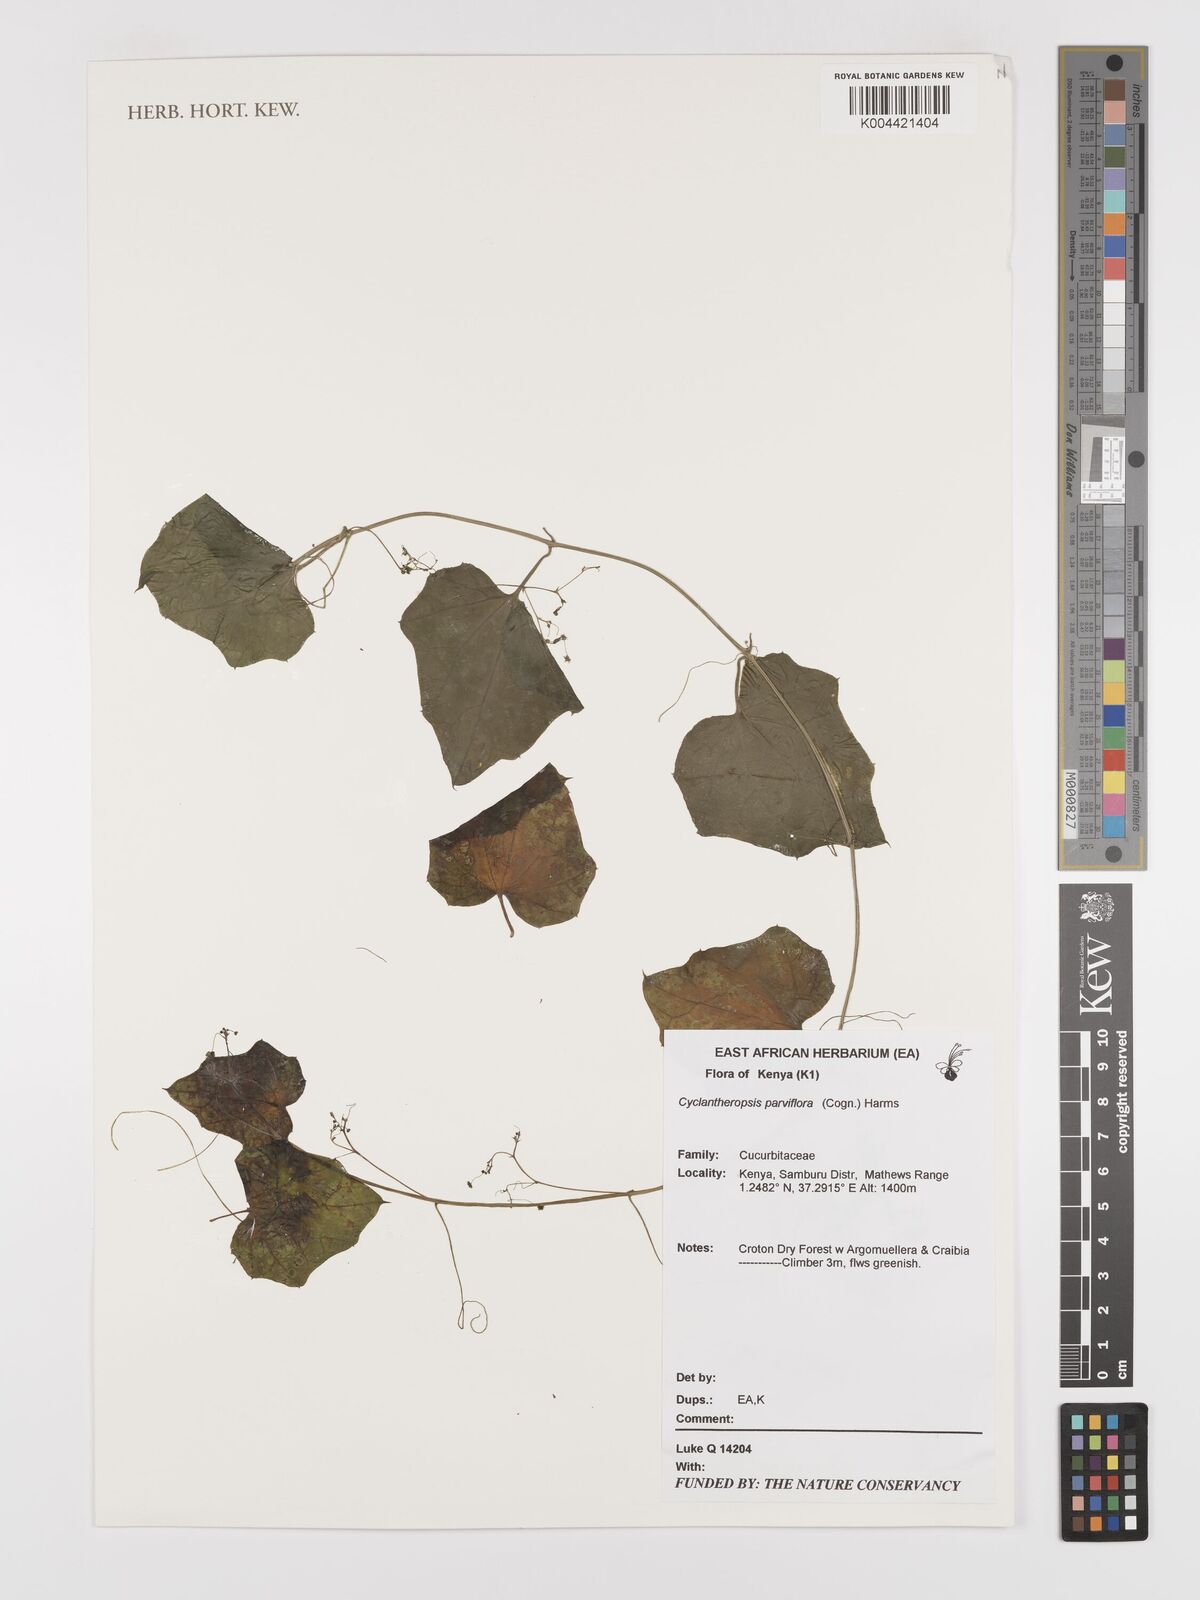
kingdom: Plantae
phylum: Tracheophyta
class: Magnoliopsida
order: Cucurbitales
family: Cucurbitaceae
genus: Cyclantheropsis
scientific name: Cyclantheropsis parviflora
